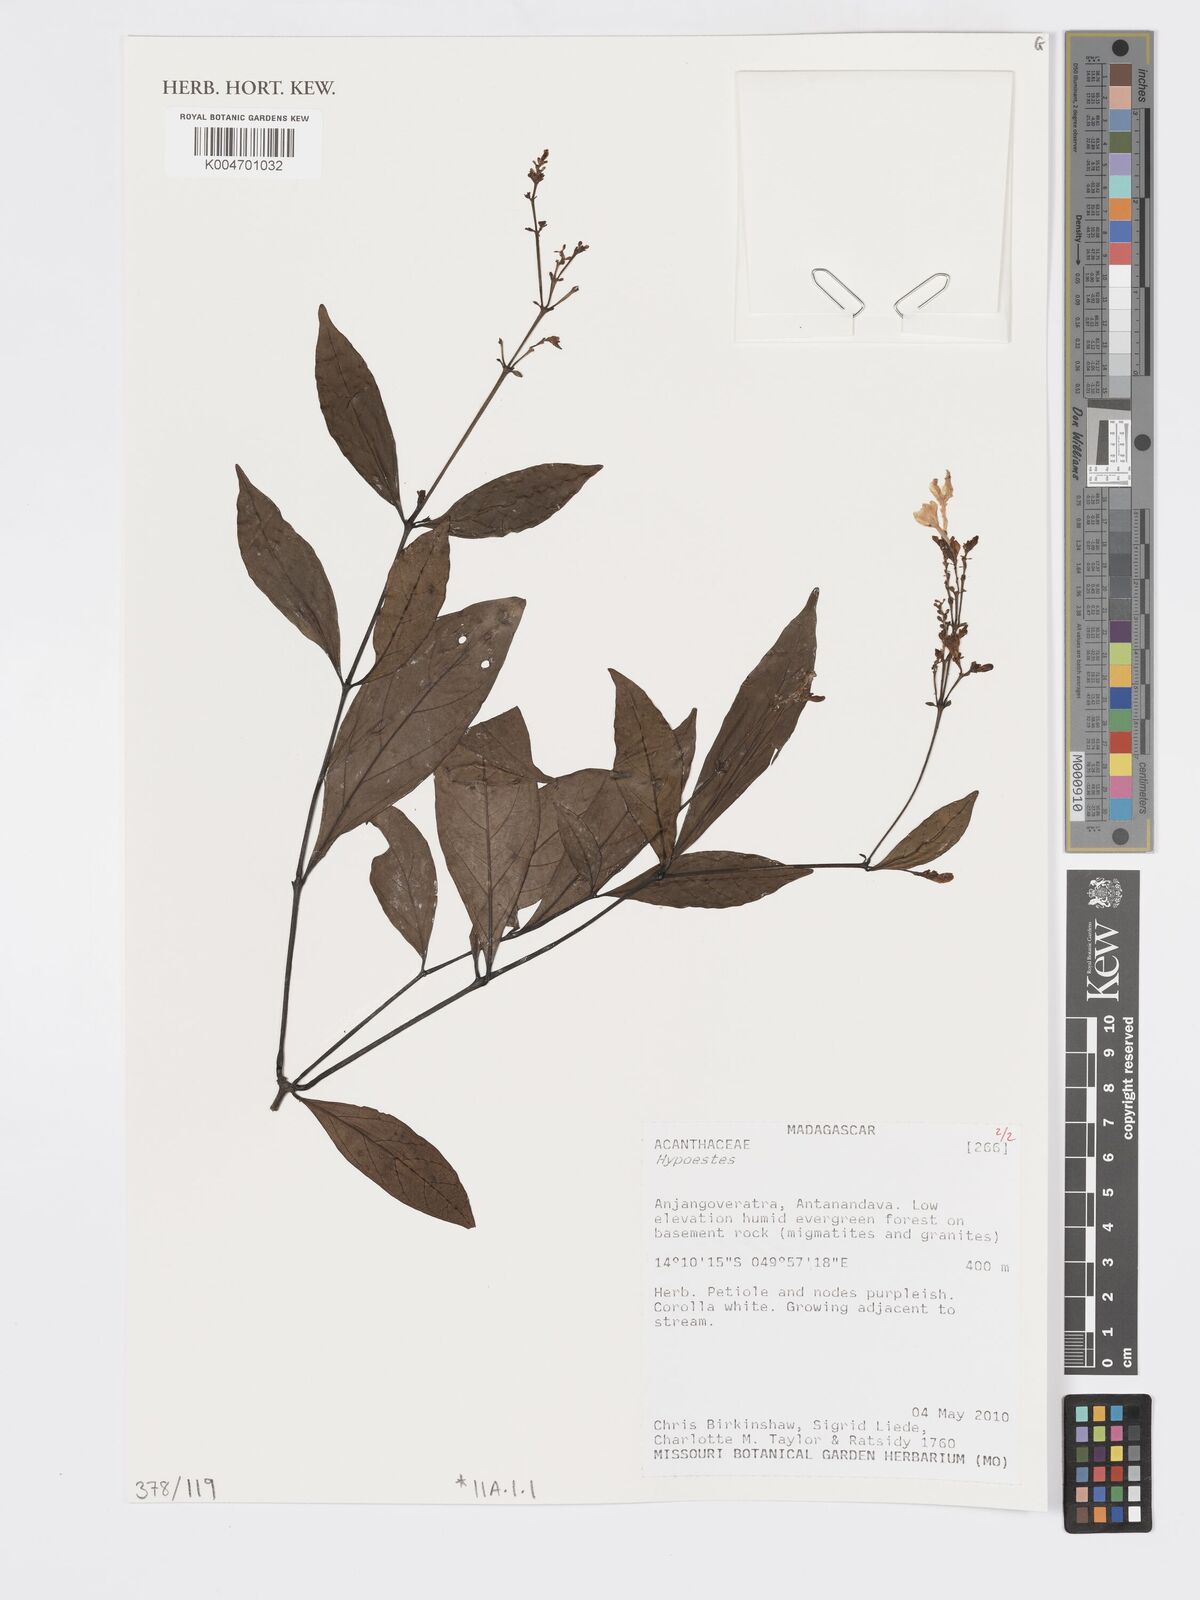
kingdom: Plantae
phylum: Tracheophyta
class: Magnoliopsida
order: Lamiales
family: Acanthaceae
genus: Hypoestes
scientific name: Hypoestes
